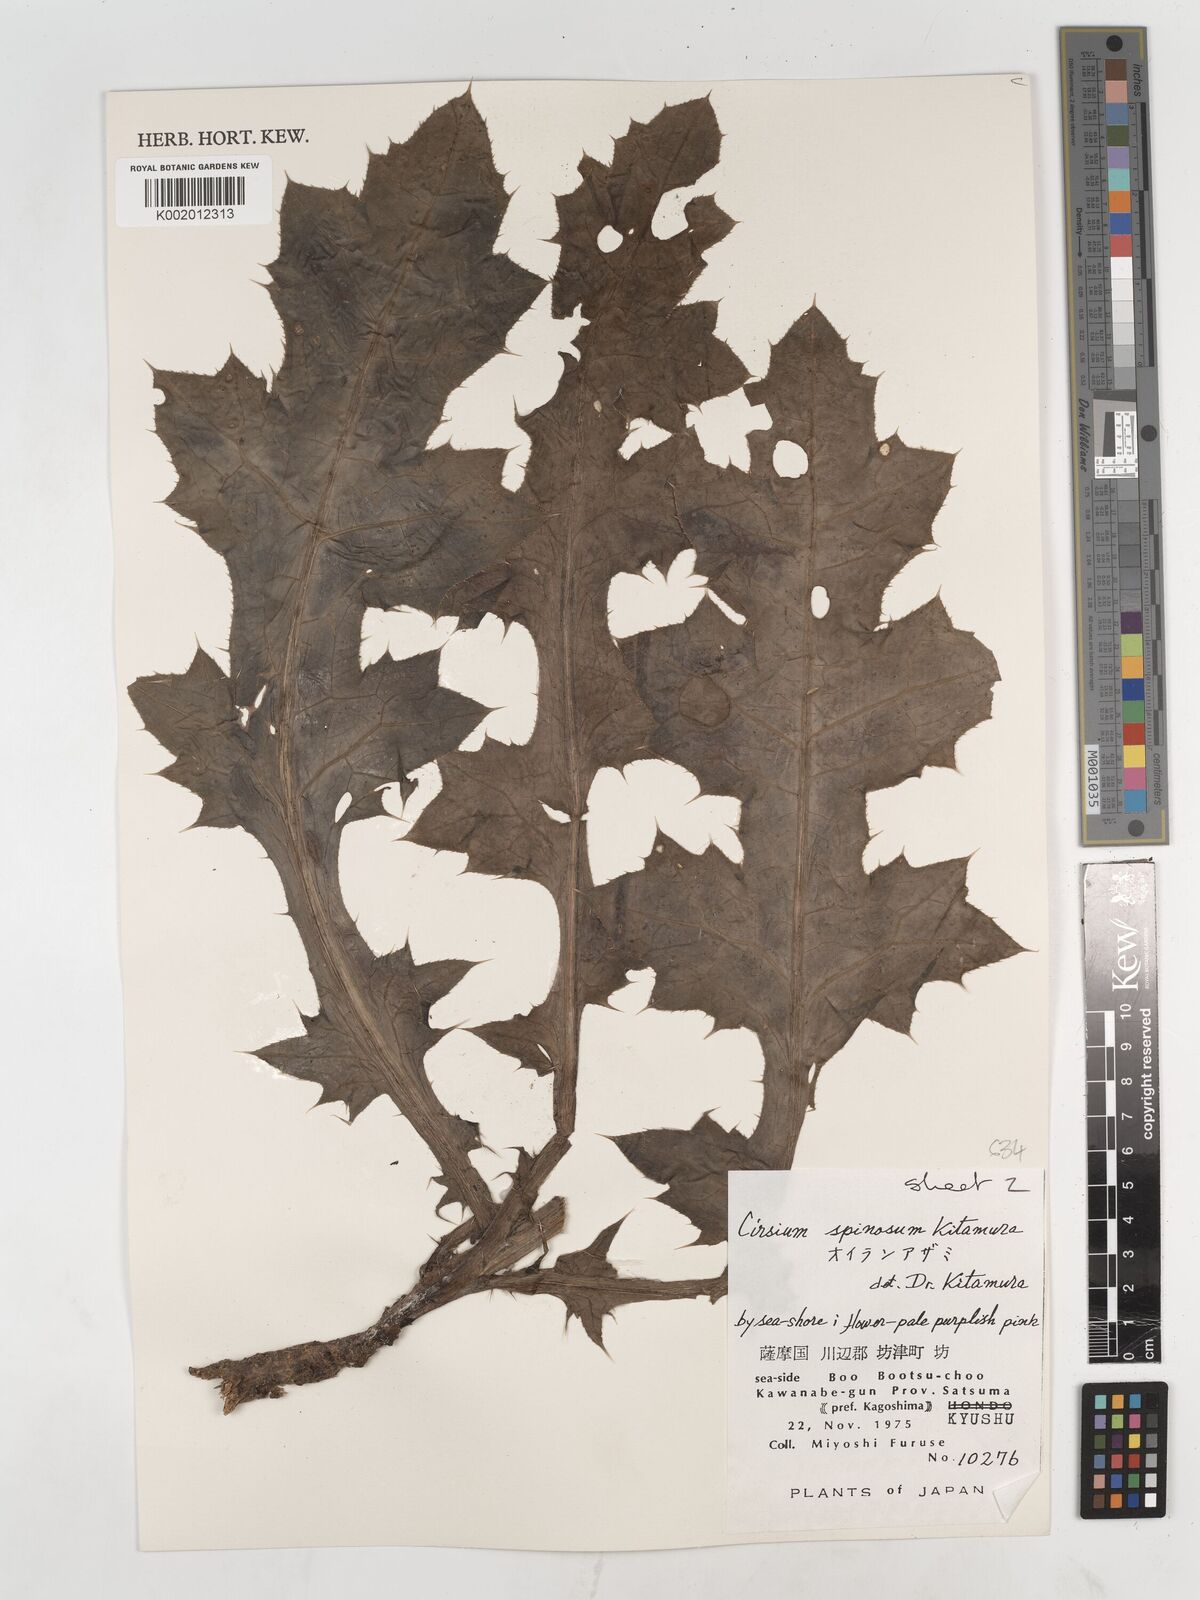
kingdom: Plantae
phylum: Tracheophyta
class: Magnoliopsida
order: Asterales
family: Asteraceae
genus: Cirsium
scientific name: Cirsium spinosum
